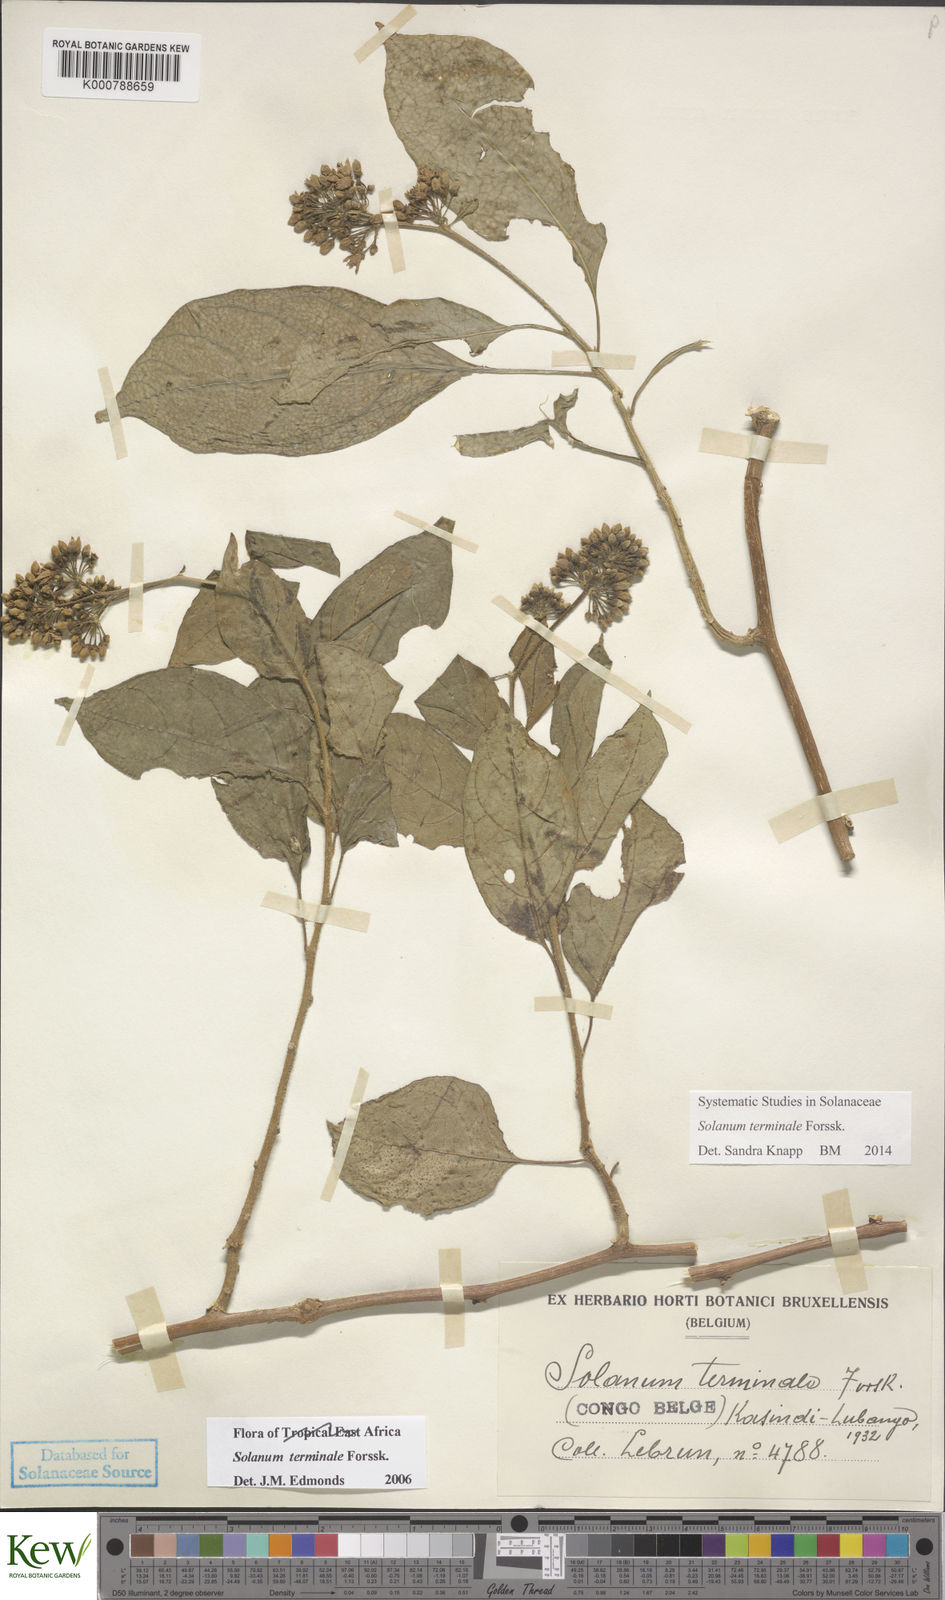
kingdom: Plantae
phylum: Tracheophyta
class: Magnoliopsida
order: Solanales
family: Solanaceae
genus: Solanum
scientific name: Solanum terminale
